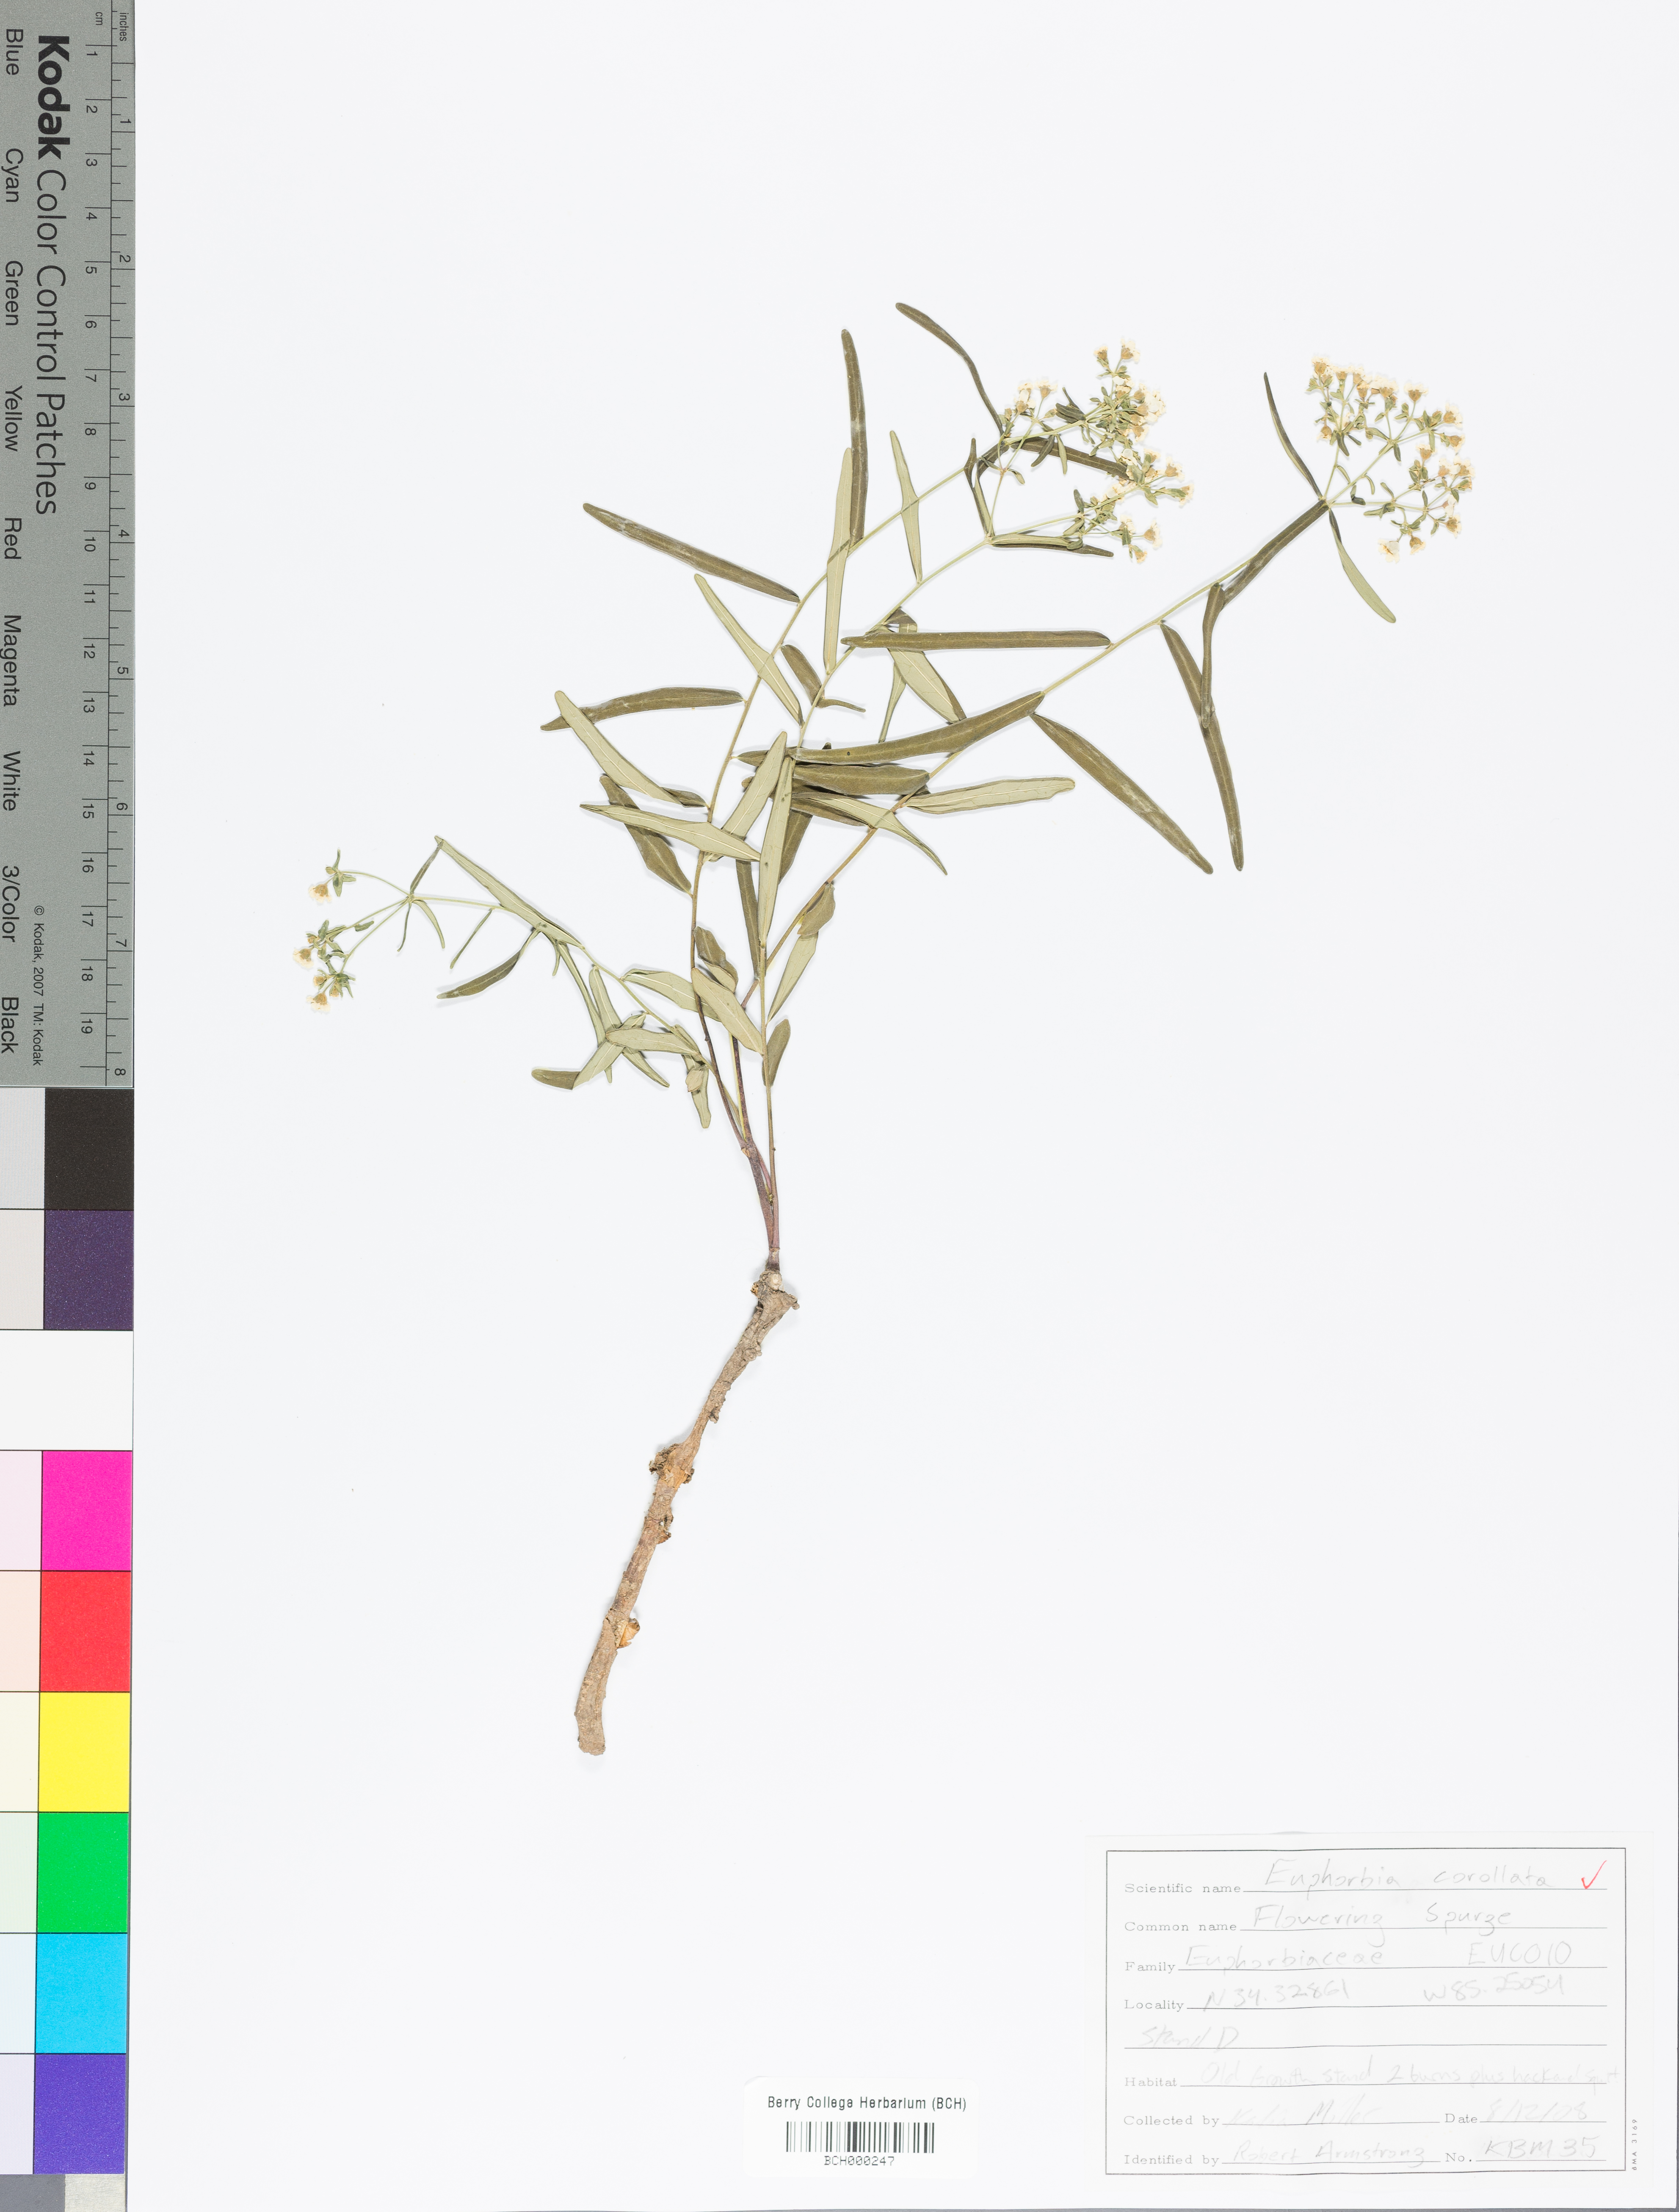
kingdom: Plantae
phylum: Tracheophyta
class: Magnoliopsida
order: Malpighiales
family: Euphorbiaceae
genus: Euphorbia
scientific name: Euphorbia corollata
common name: Flowering spurge
